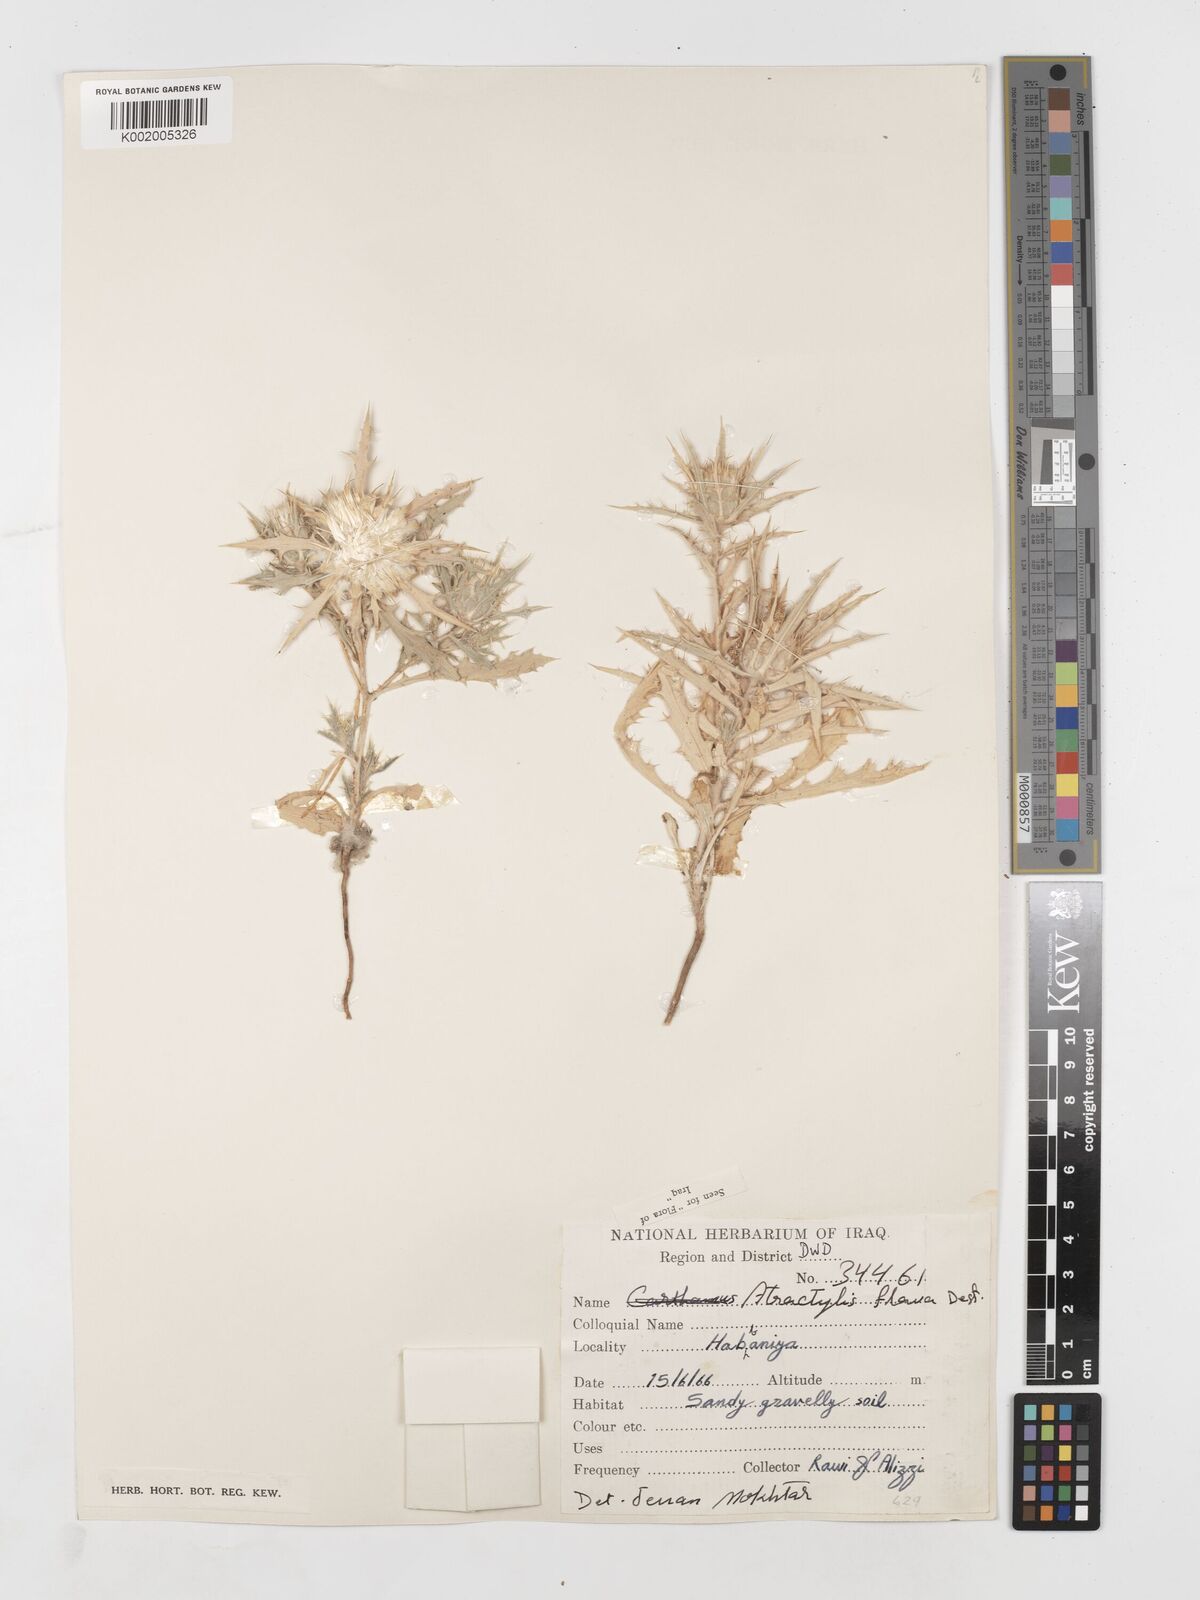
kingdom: Plantae
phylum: Tracheophyta
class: Magnoliopsida
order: Asterales
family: Asteraceae
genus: Atractylis
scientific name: Atractylis carduus
